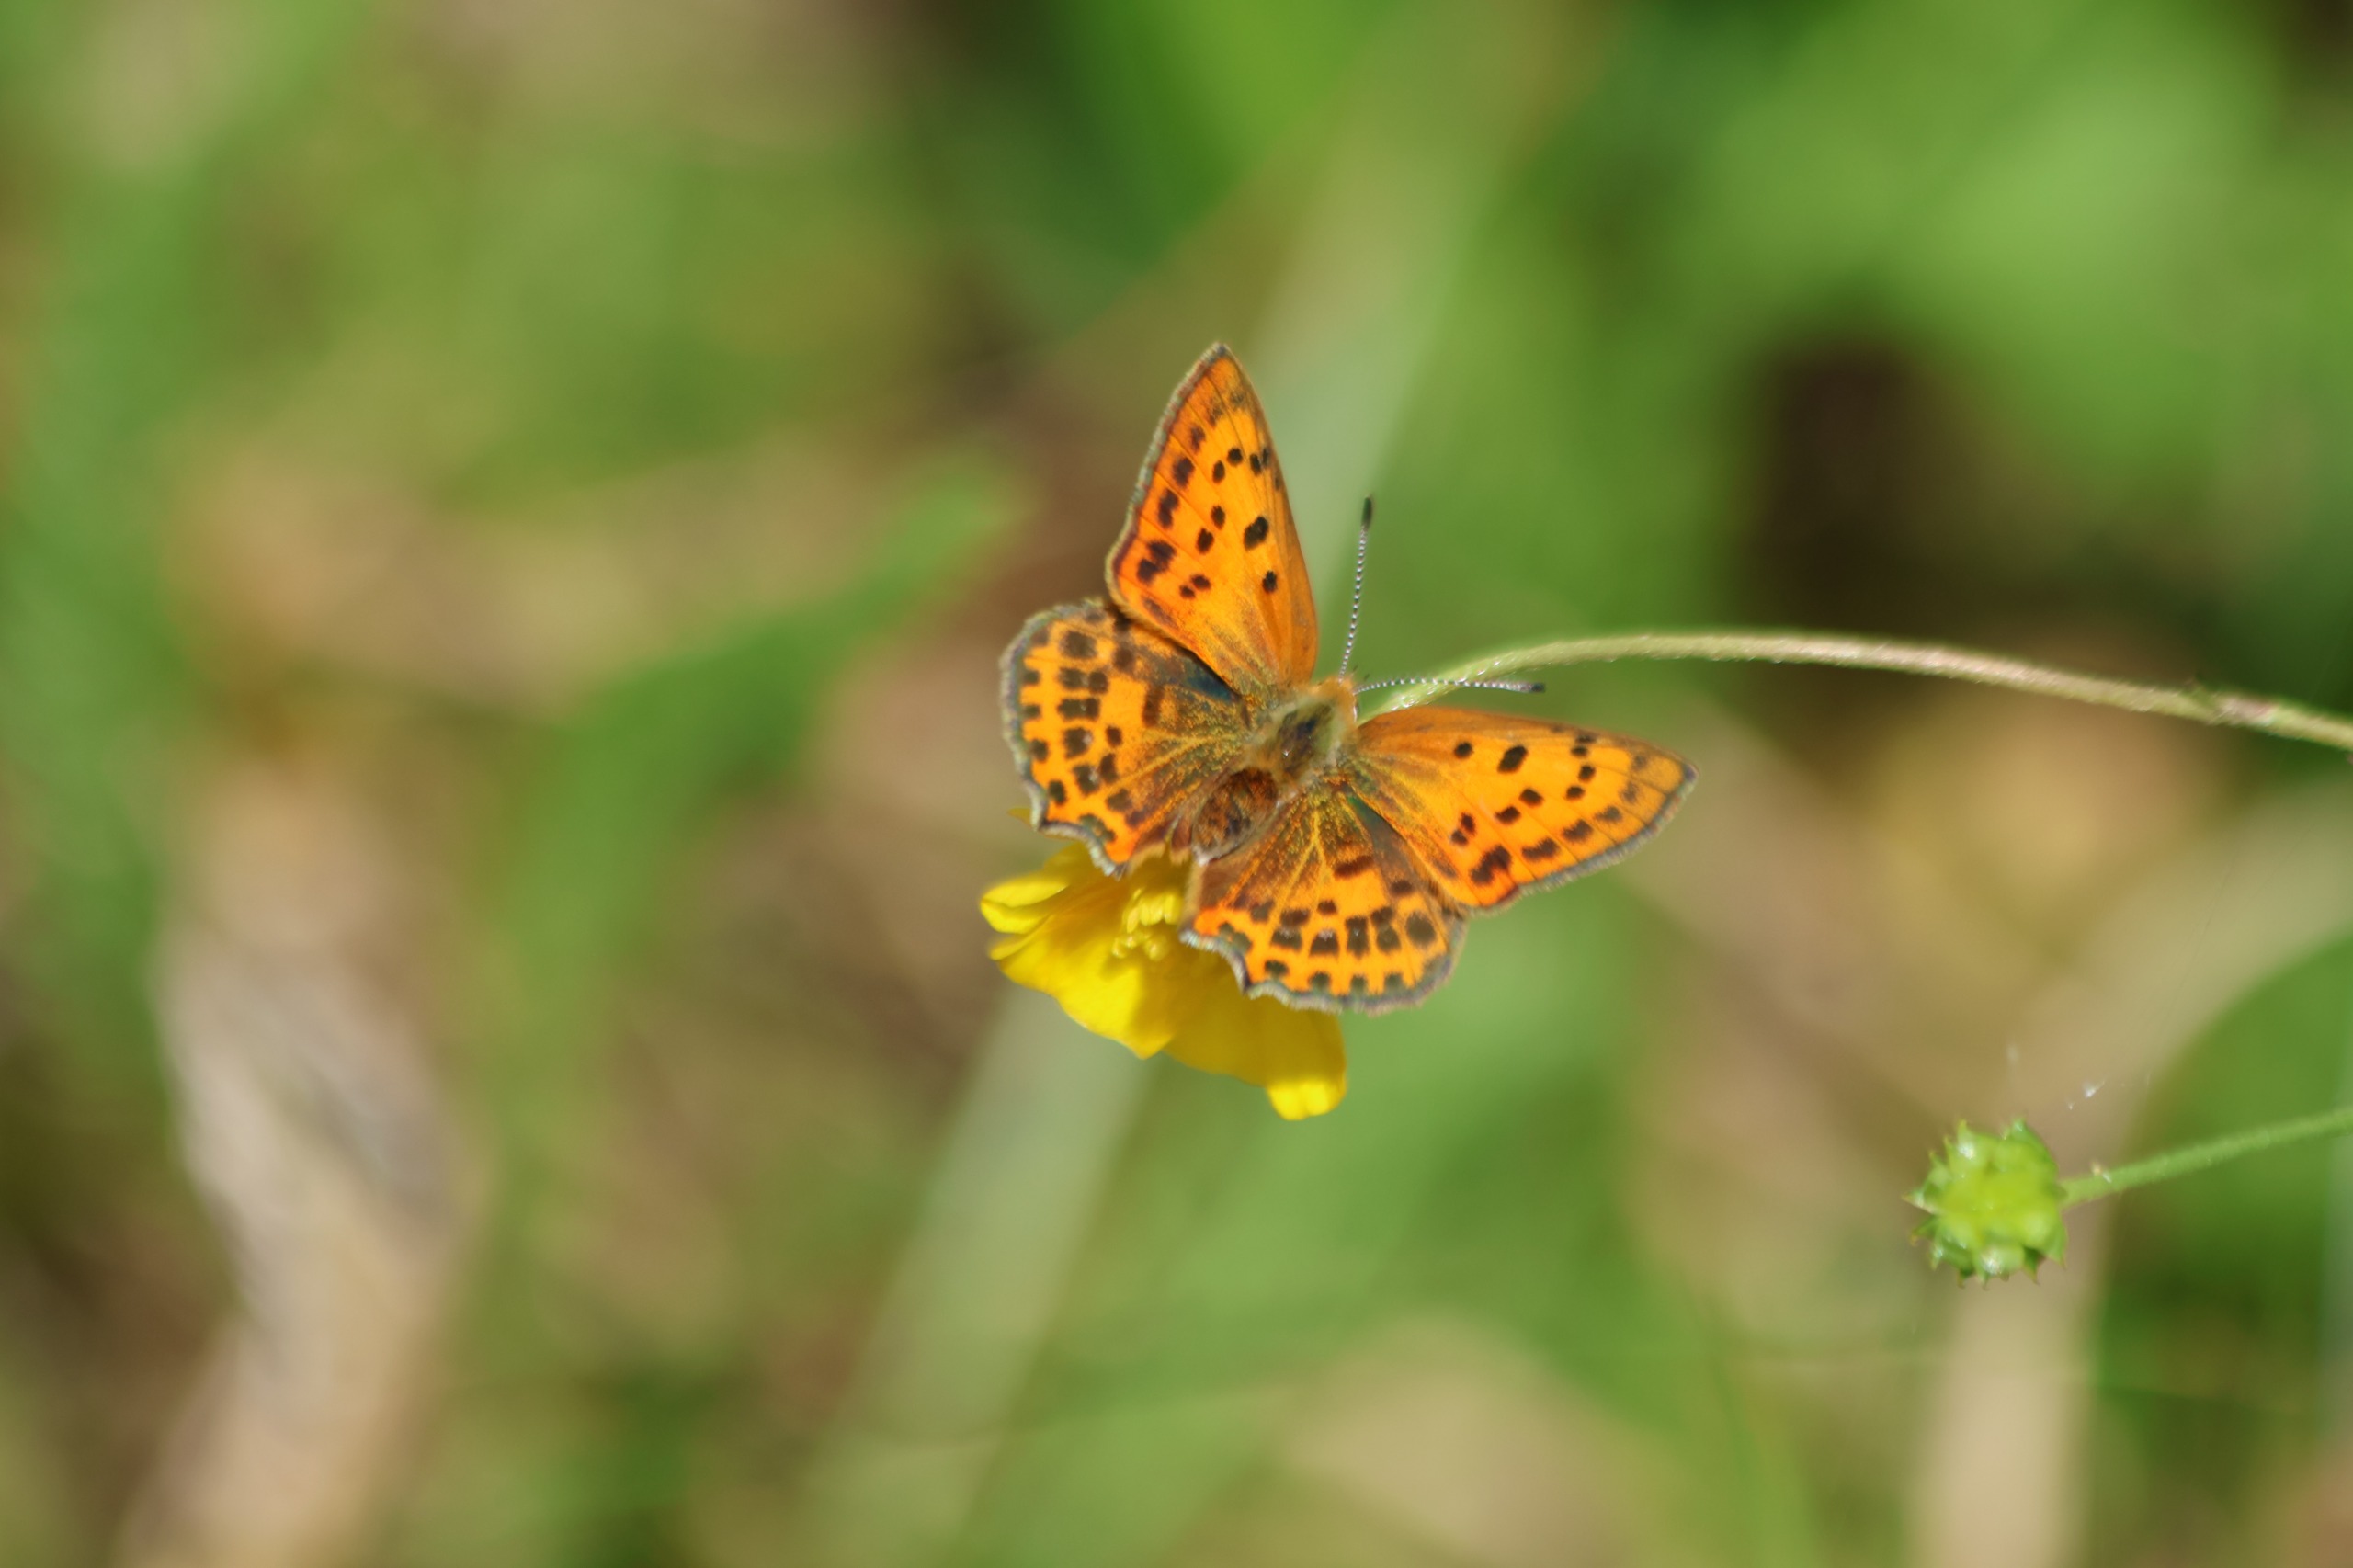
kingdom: Animalia
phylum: Arthropoda
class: Insecta
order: Lepidoptera
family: Lycaenidae
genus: Lycaena
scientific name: Lycaena virgaureae
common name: Dukatsommerfugl
